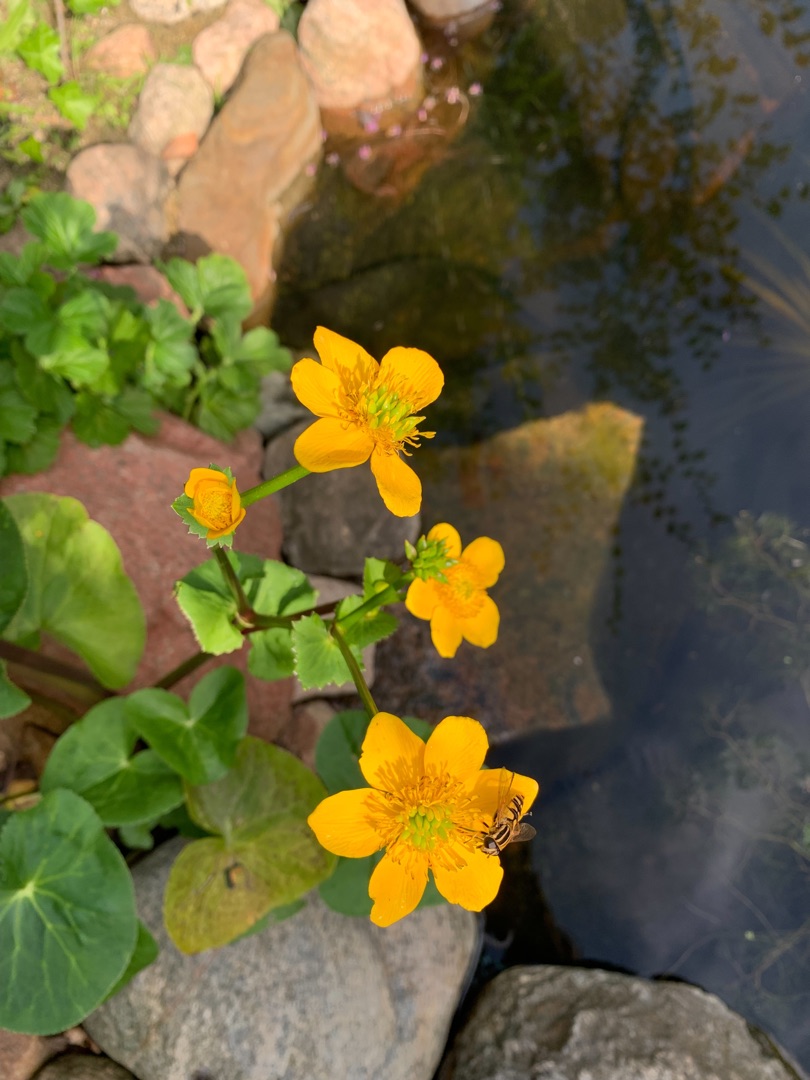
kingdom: Plantae
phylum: Tracheophyta
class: Magnoliopsida
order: Ranunculales
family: Ranunculaceae
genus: Caltha
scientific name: Caltha palustris
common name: Eng-kabbeleje
